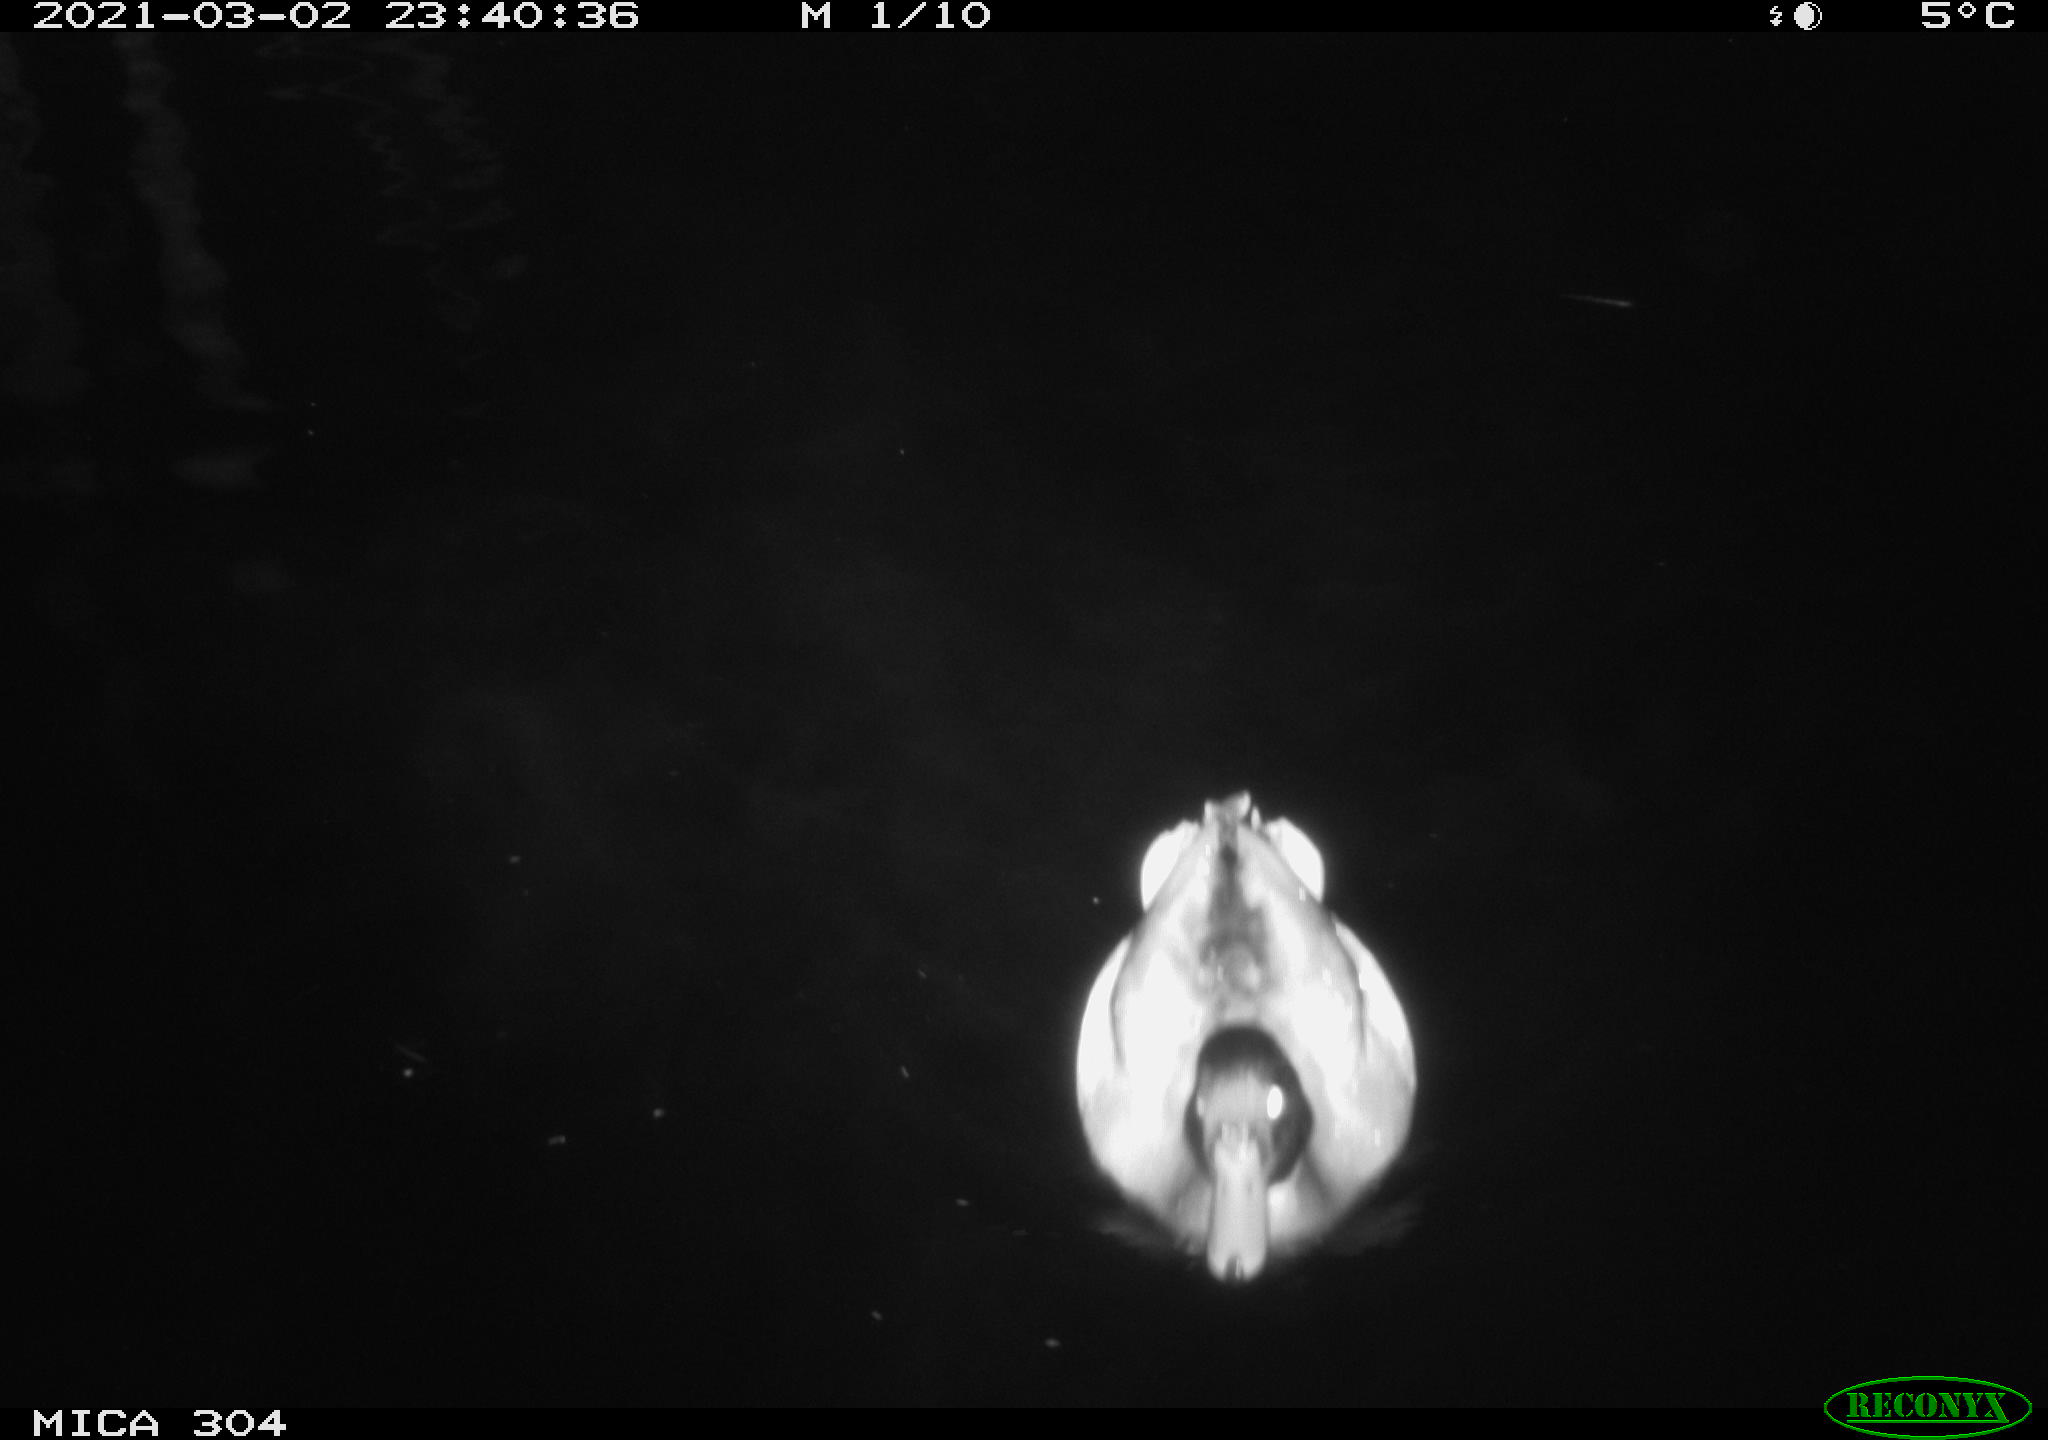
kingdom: Animalia
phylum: Chordata
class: Aves
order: Anseriformes
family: Anatidae
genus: Anas
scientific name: Anas platyrhynchos
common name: Mallard
